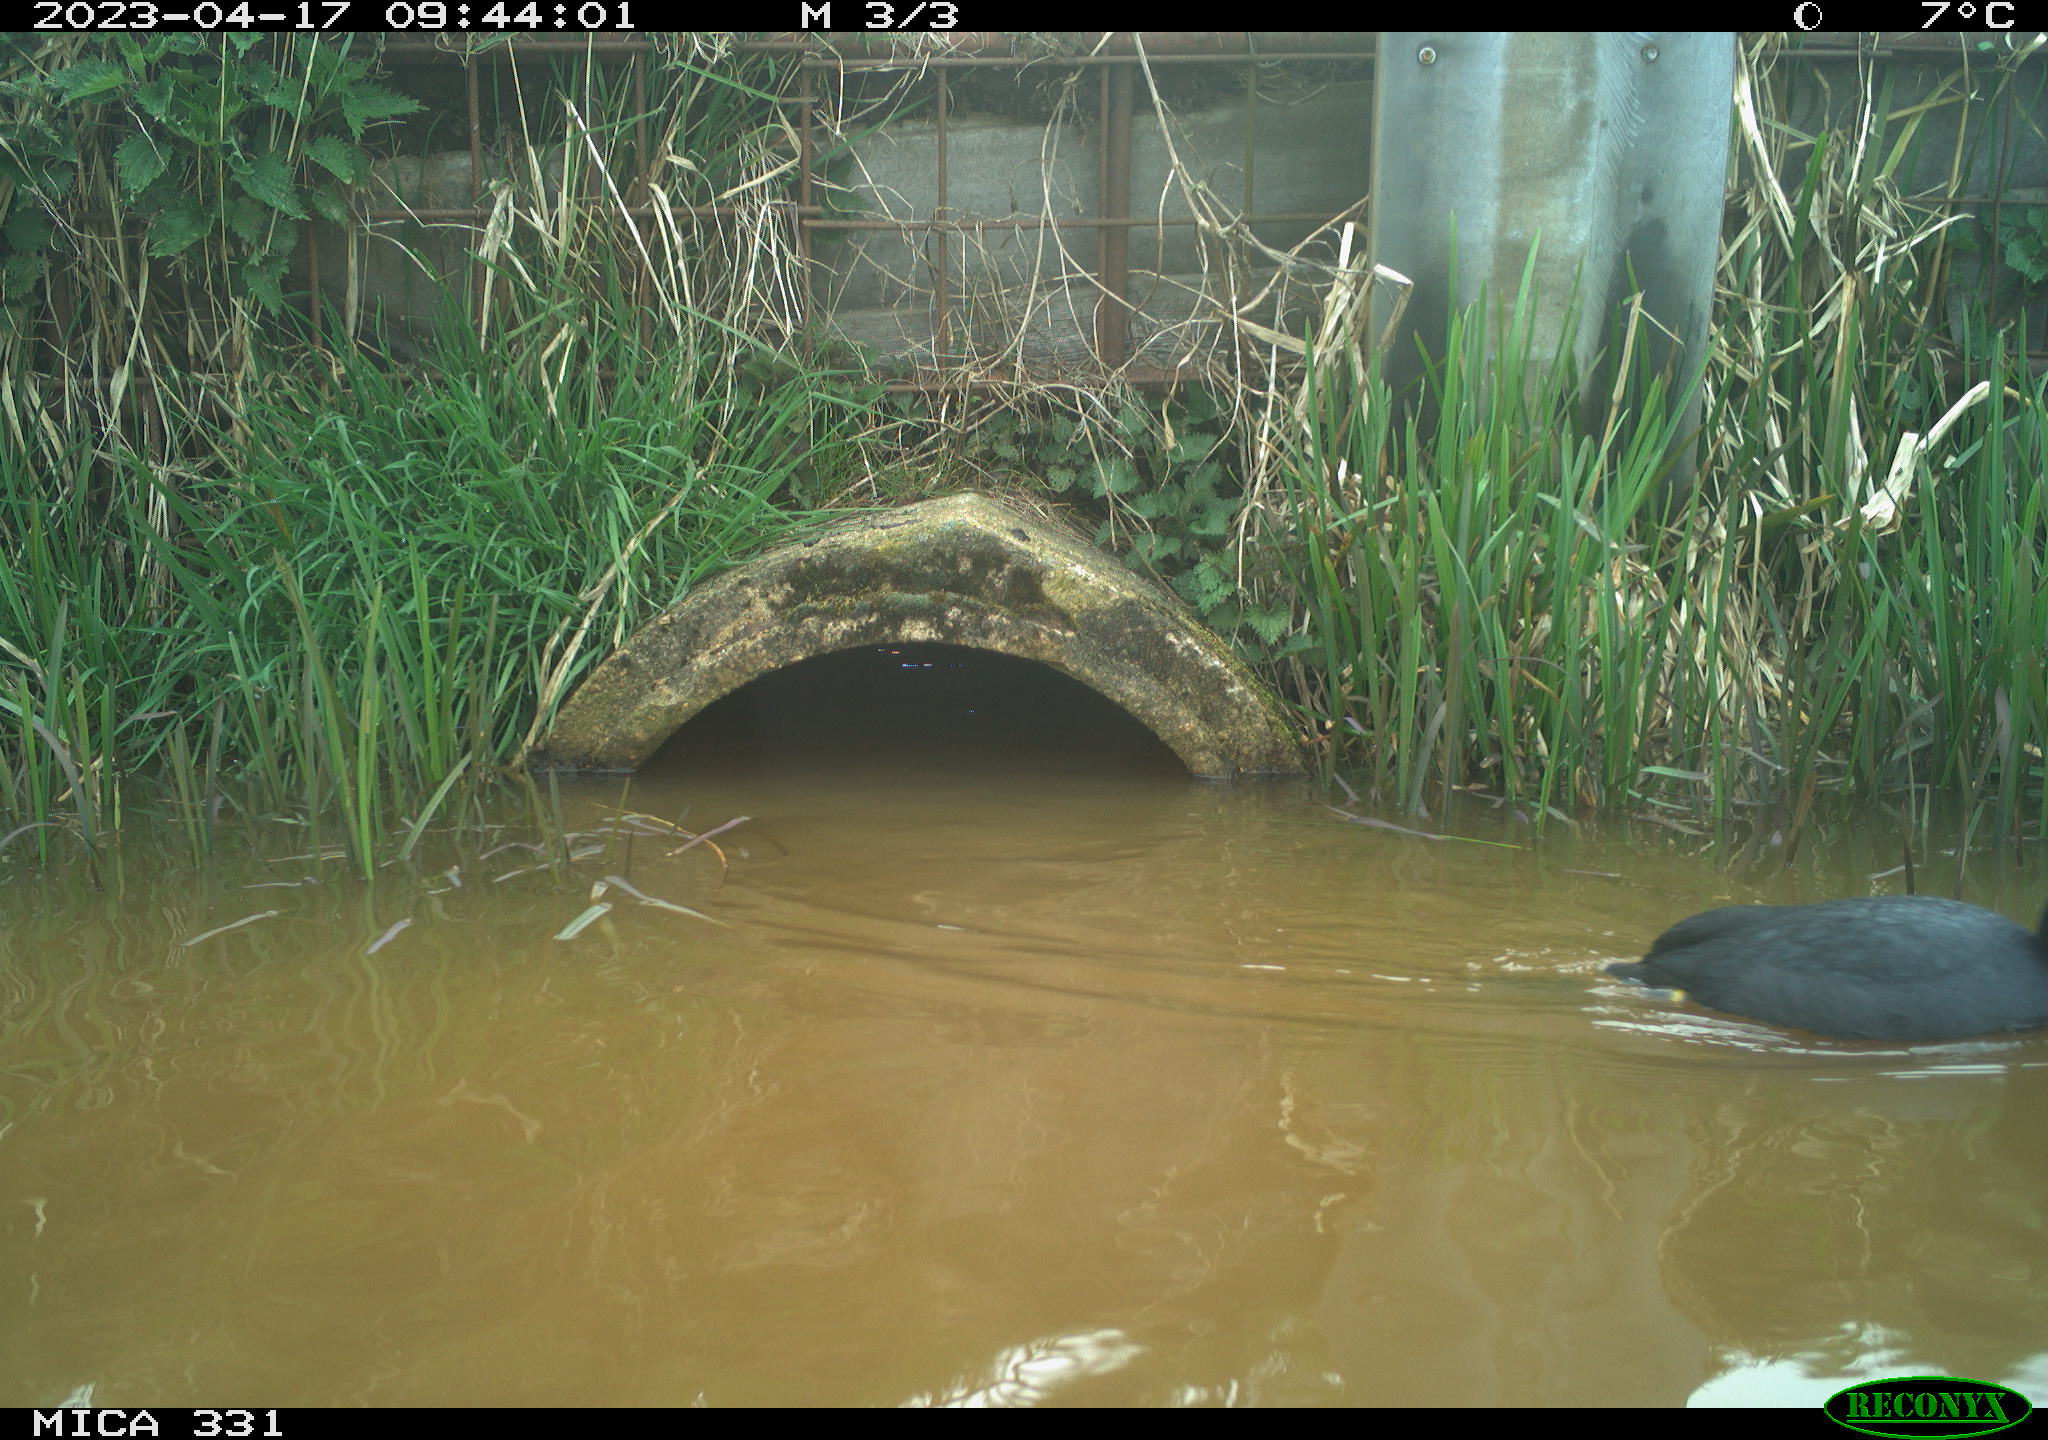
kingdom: Animalia
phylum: Chordata
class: Aves
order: Gruiformes
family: Rallidae
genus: Fulica
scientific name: Fulica atra
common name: Eurasian coot
